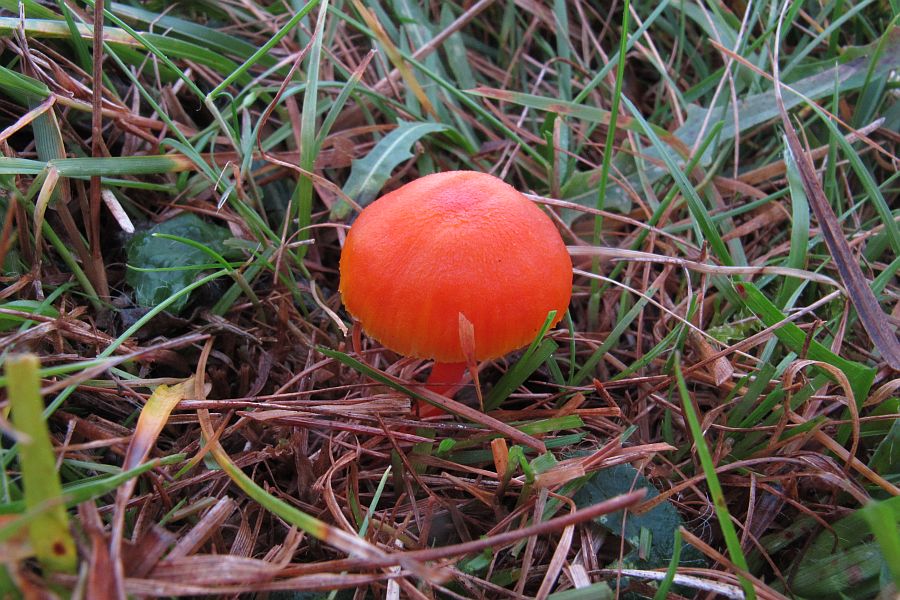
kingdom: Fungi
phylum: Basidiomycota
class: Agaricomycetes
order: Agaricales
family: Hygrophoraceae
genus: Hygrocybe
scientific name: Hygrocybe miniata
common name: mønje-vokshat
